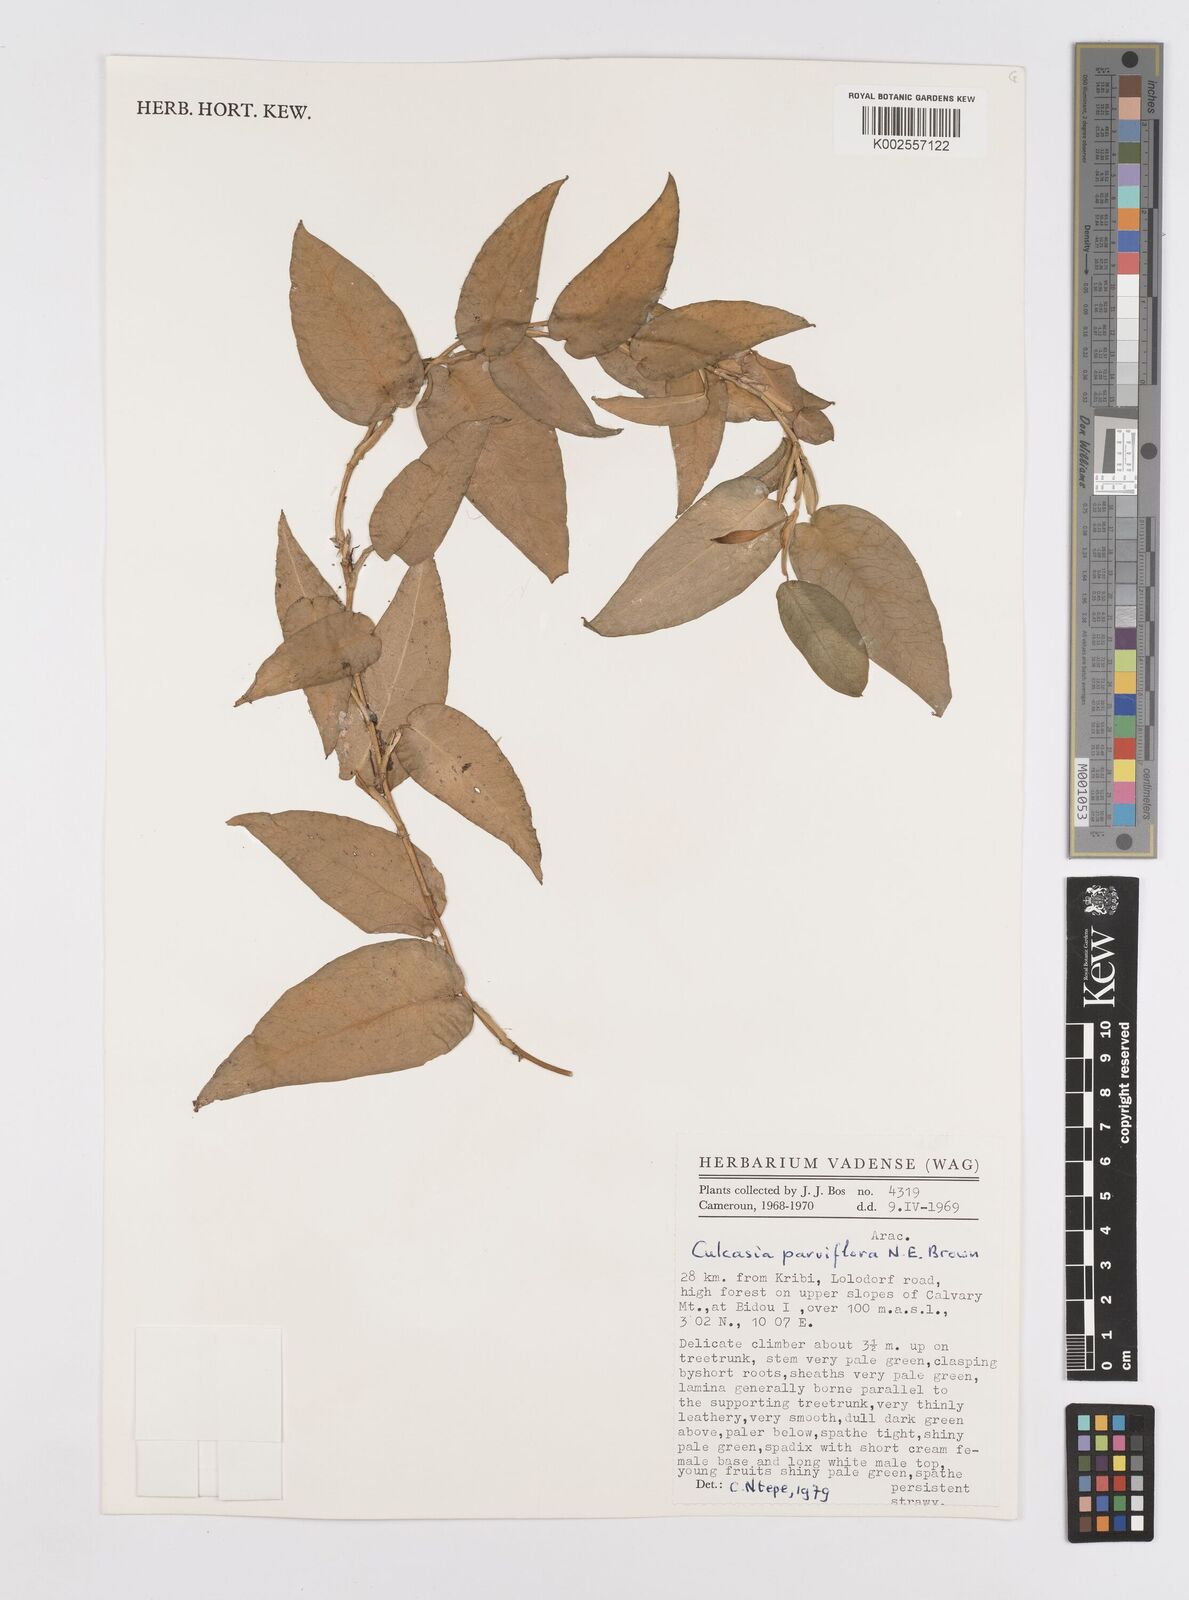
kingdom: Plantae
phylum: Tracheophyta
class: Liliopsida
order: Alismatales
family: Araceae
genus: Culcasia
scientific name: Culcasia parviflora
